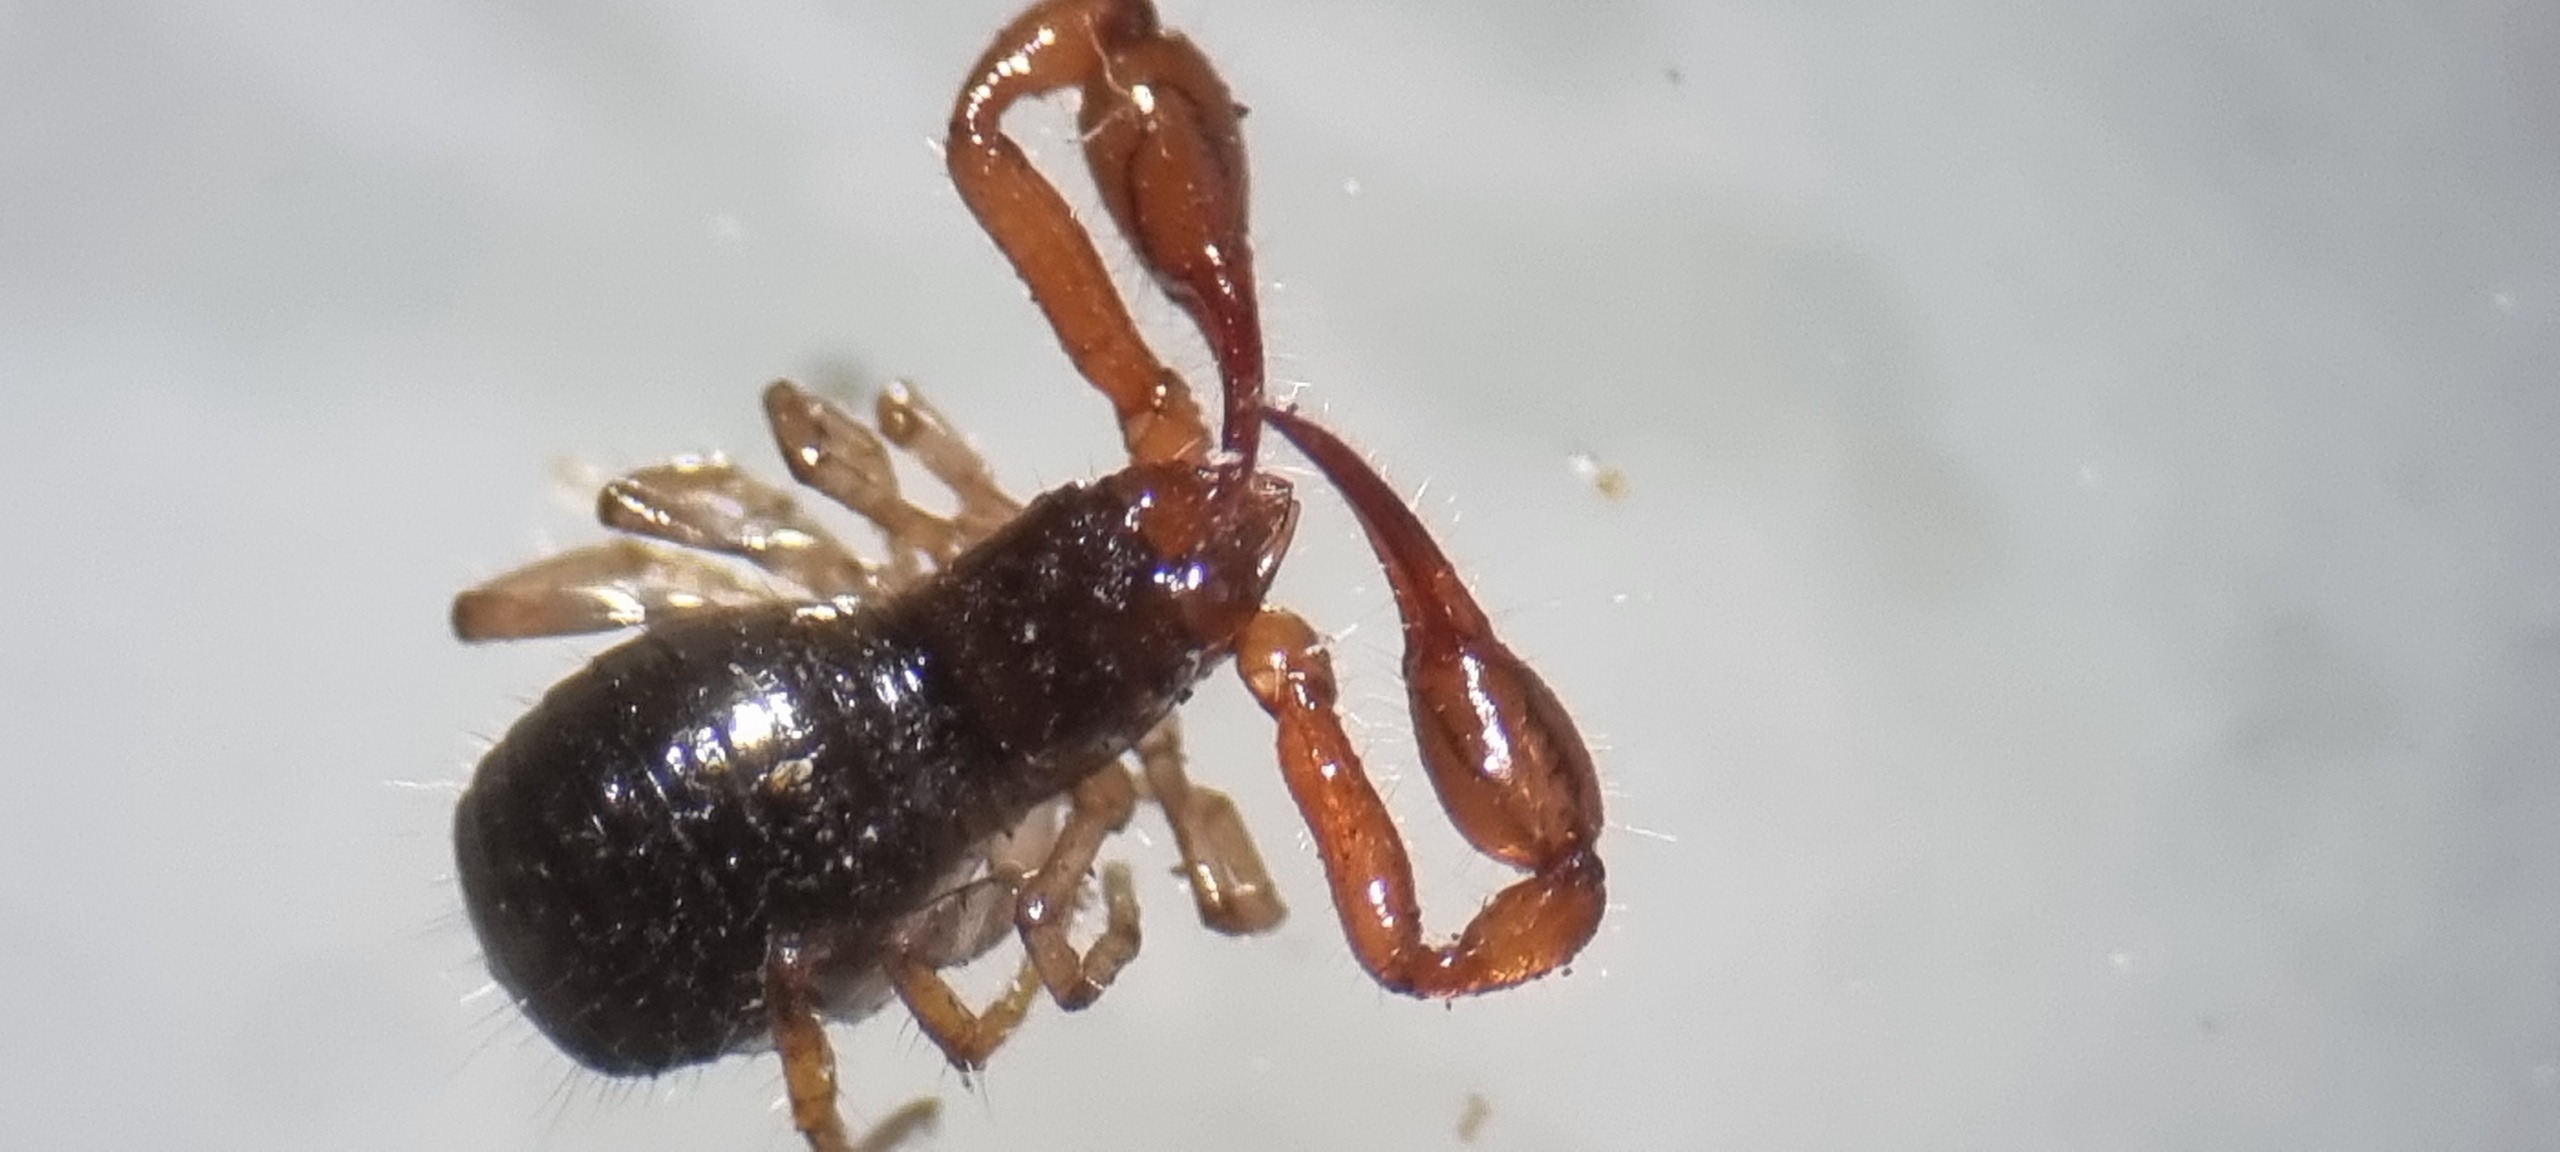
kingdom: Animalia
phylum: Arthropoda
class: Arachnida
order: Pseudoscorpiones
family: Neobisiidae
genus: Neobisium
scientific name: Neobisium carcinoides
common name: Almindelig mosskorpion
